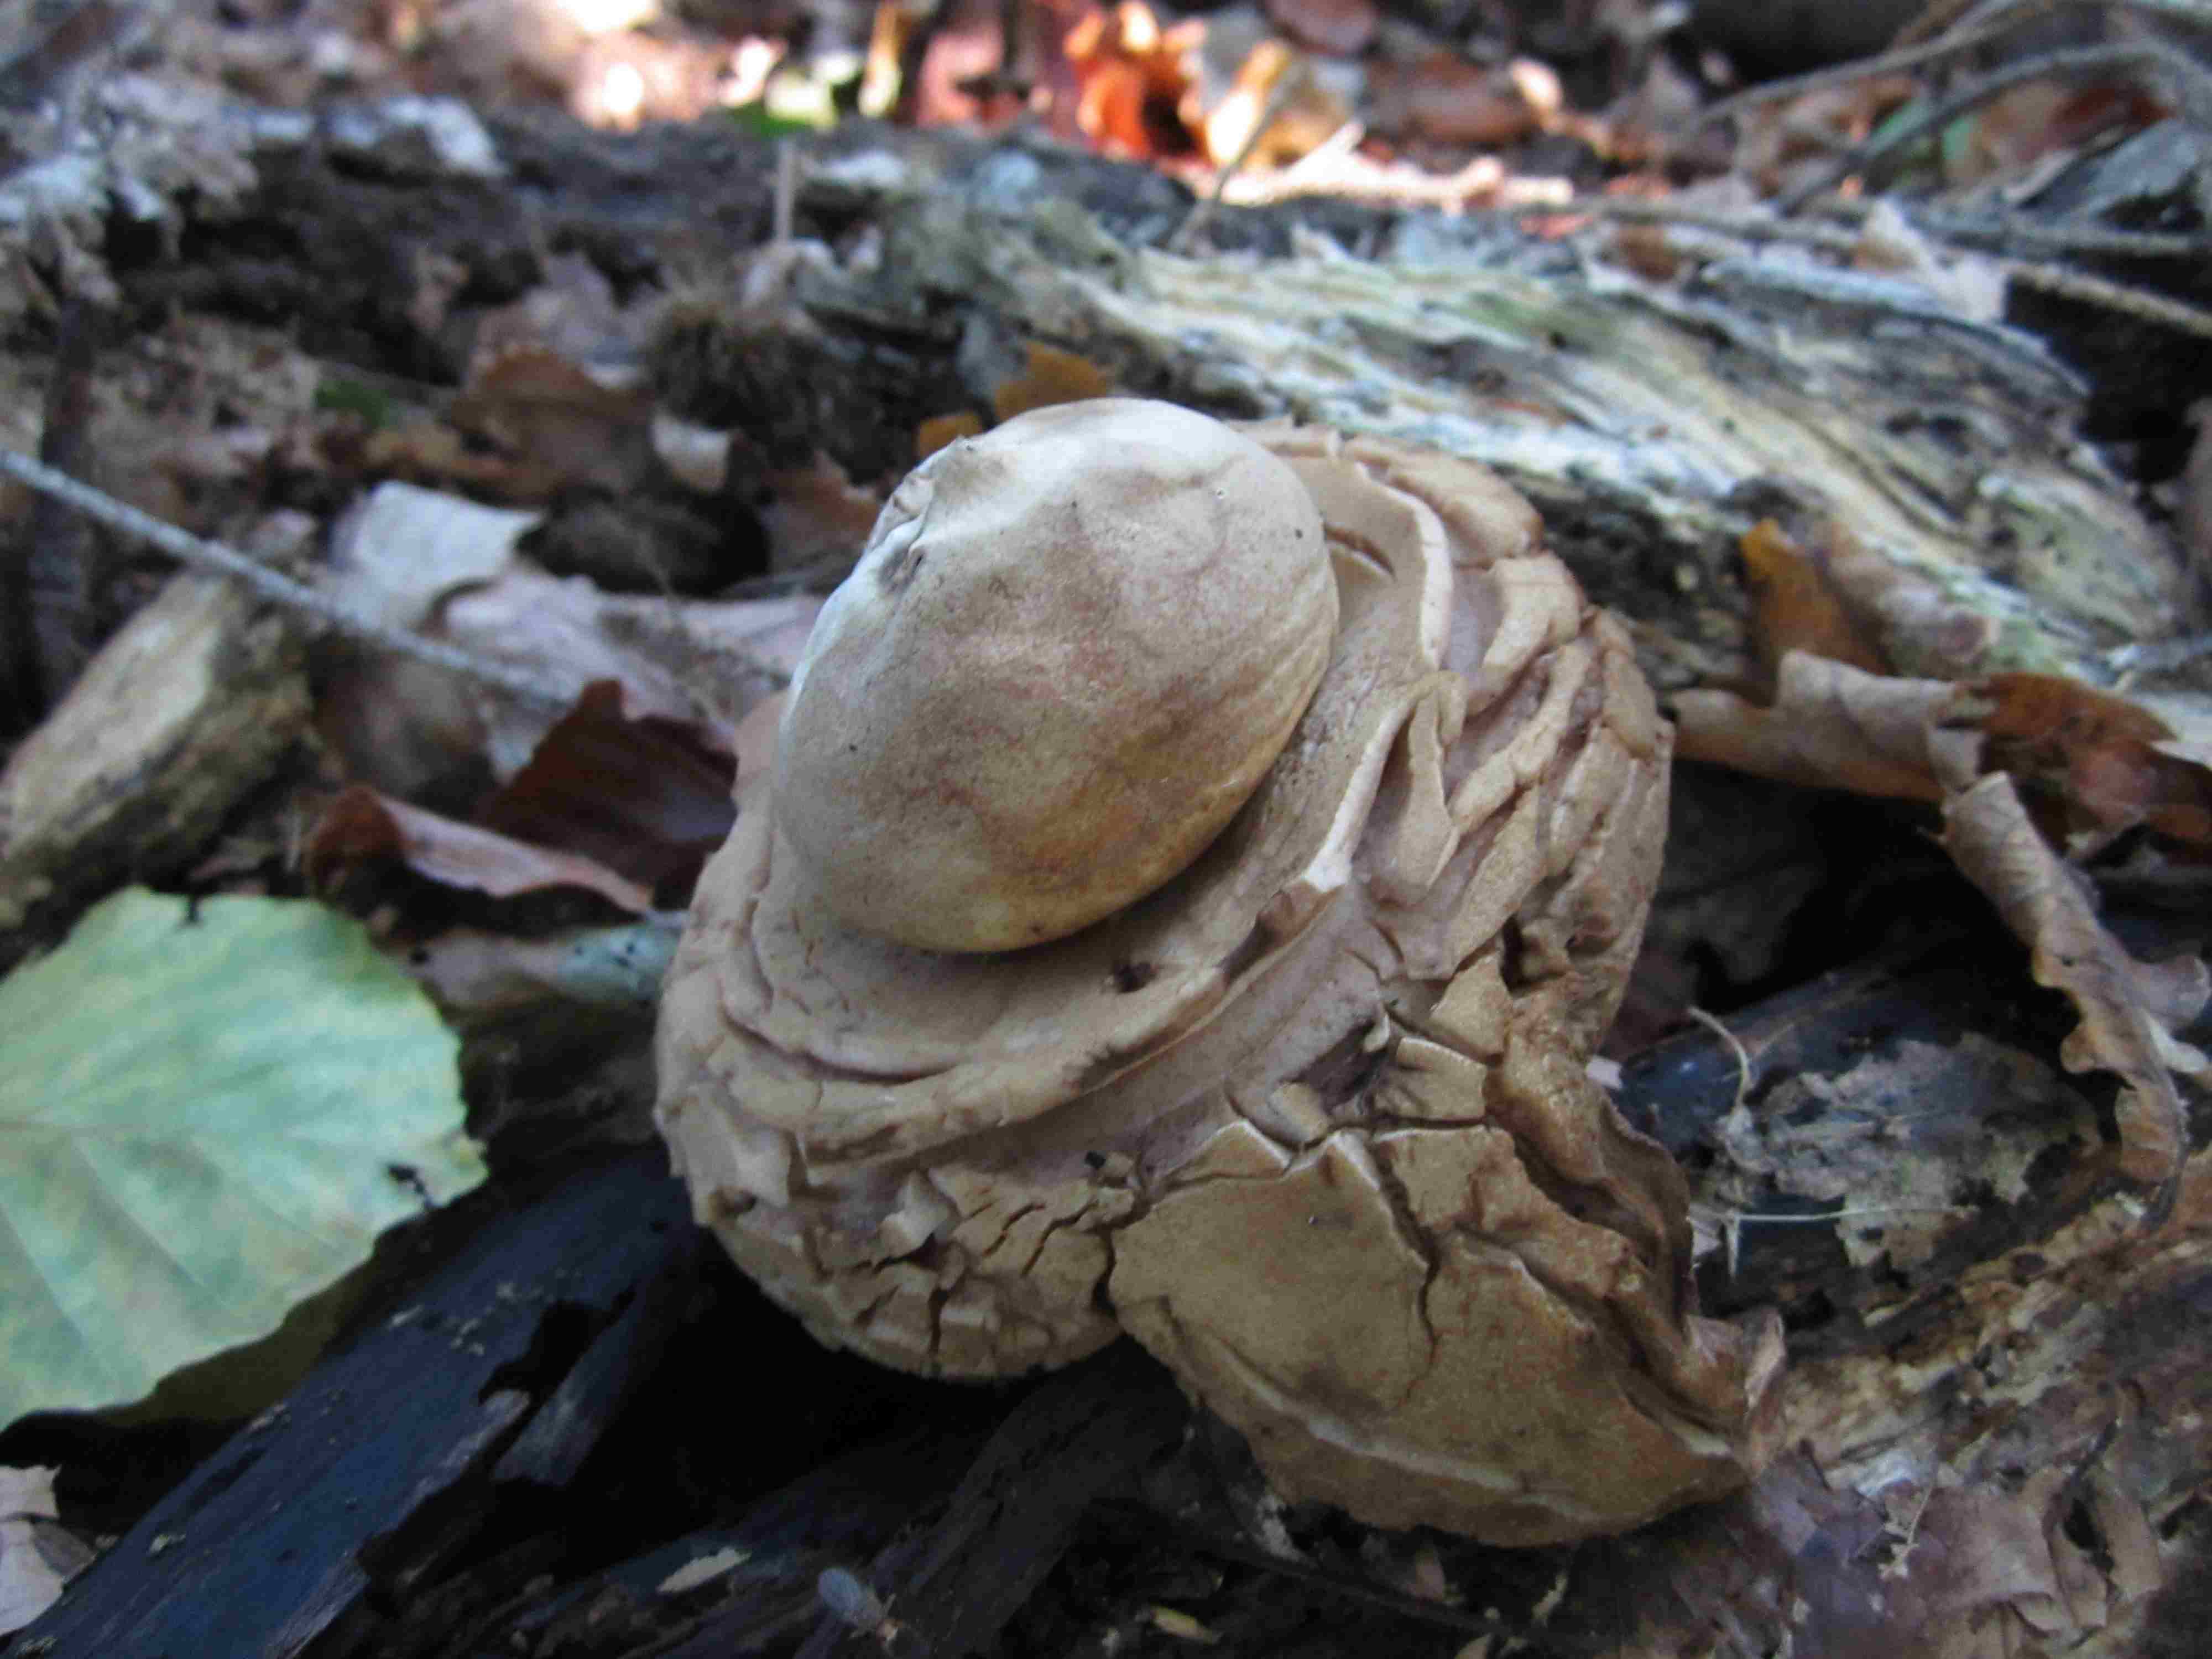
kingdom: Fungi
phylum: Basidiomycota
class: Agaricomycetes
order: Geastrales
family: Geastraceae
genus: Geastrum
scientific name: Geastrum michelianum
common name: kødet stjernebold
